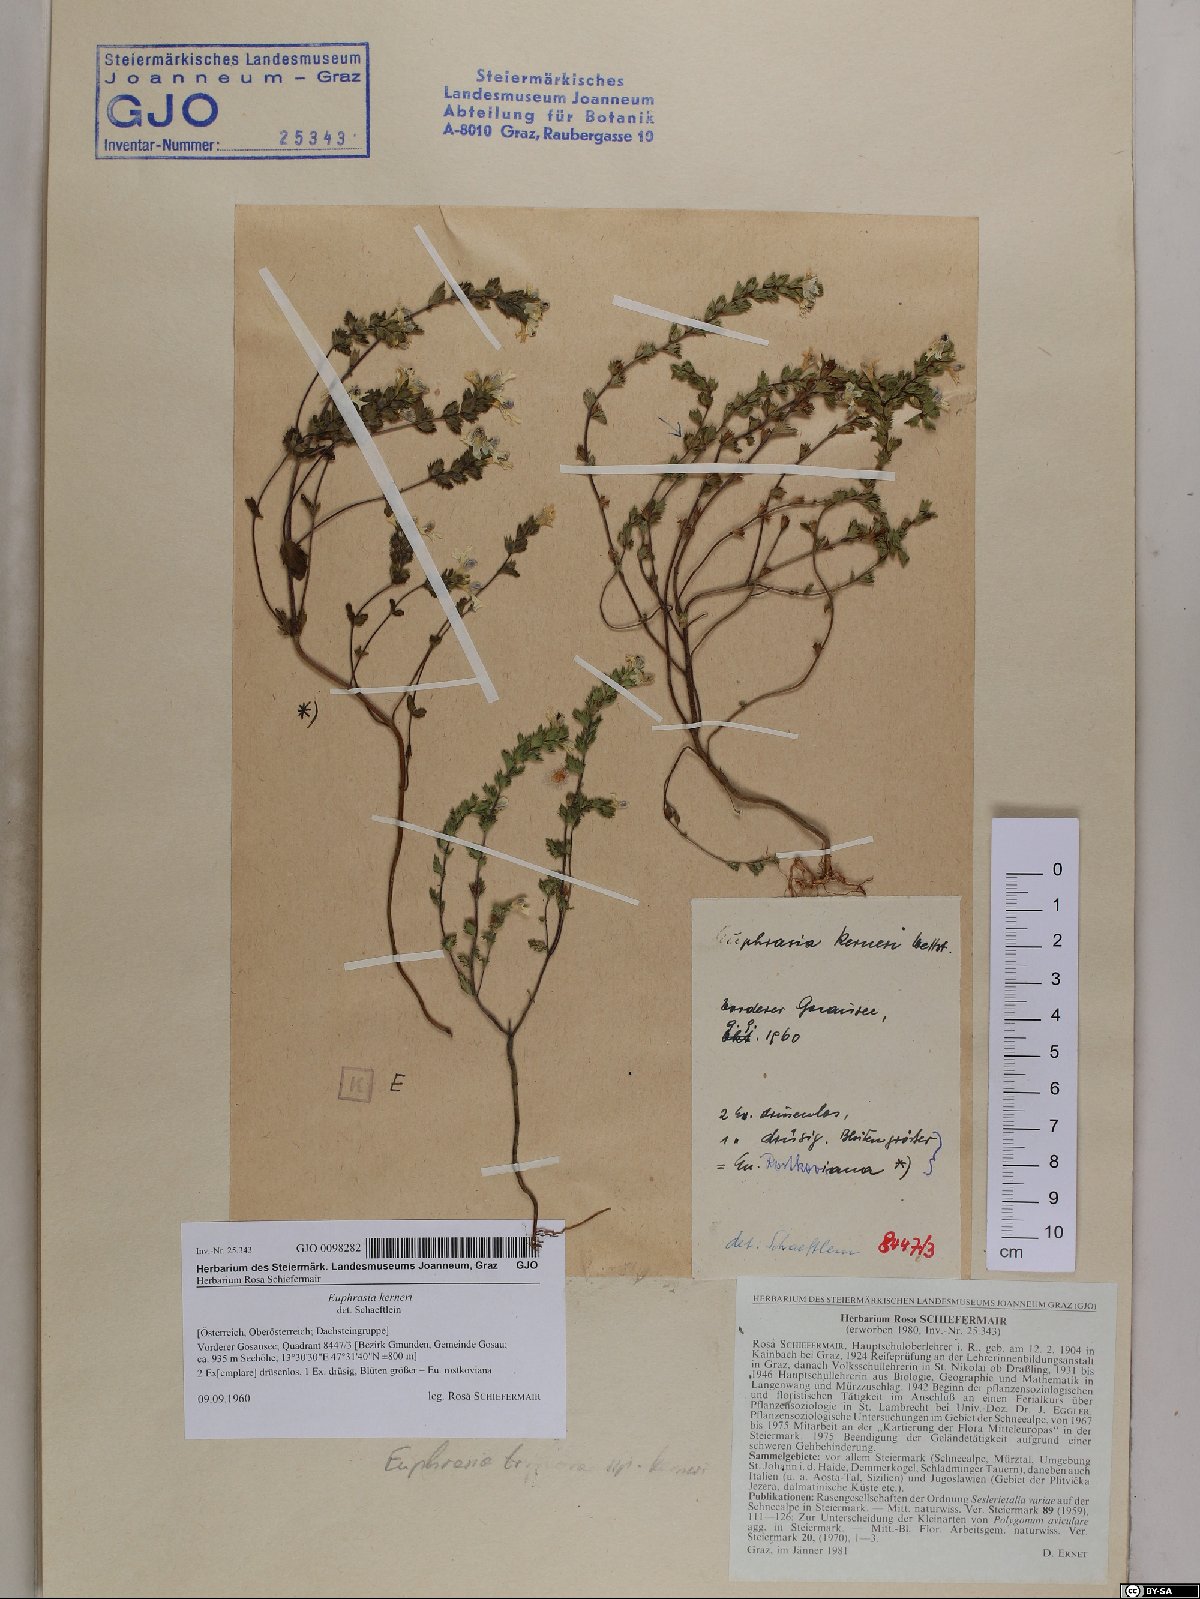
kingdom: Plantae
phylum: Tracheophyta
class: Magnoliopsida
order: Lamiales
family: Orobanchaceae
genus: Euphrasia
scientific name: Euphrasia kerneri
